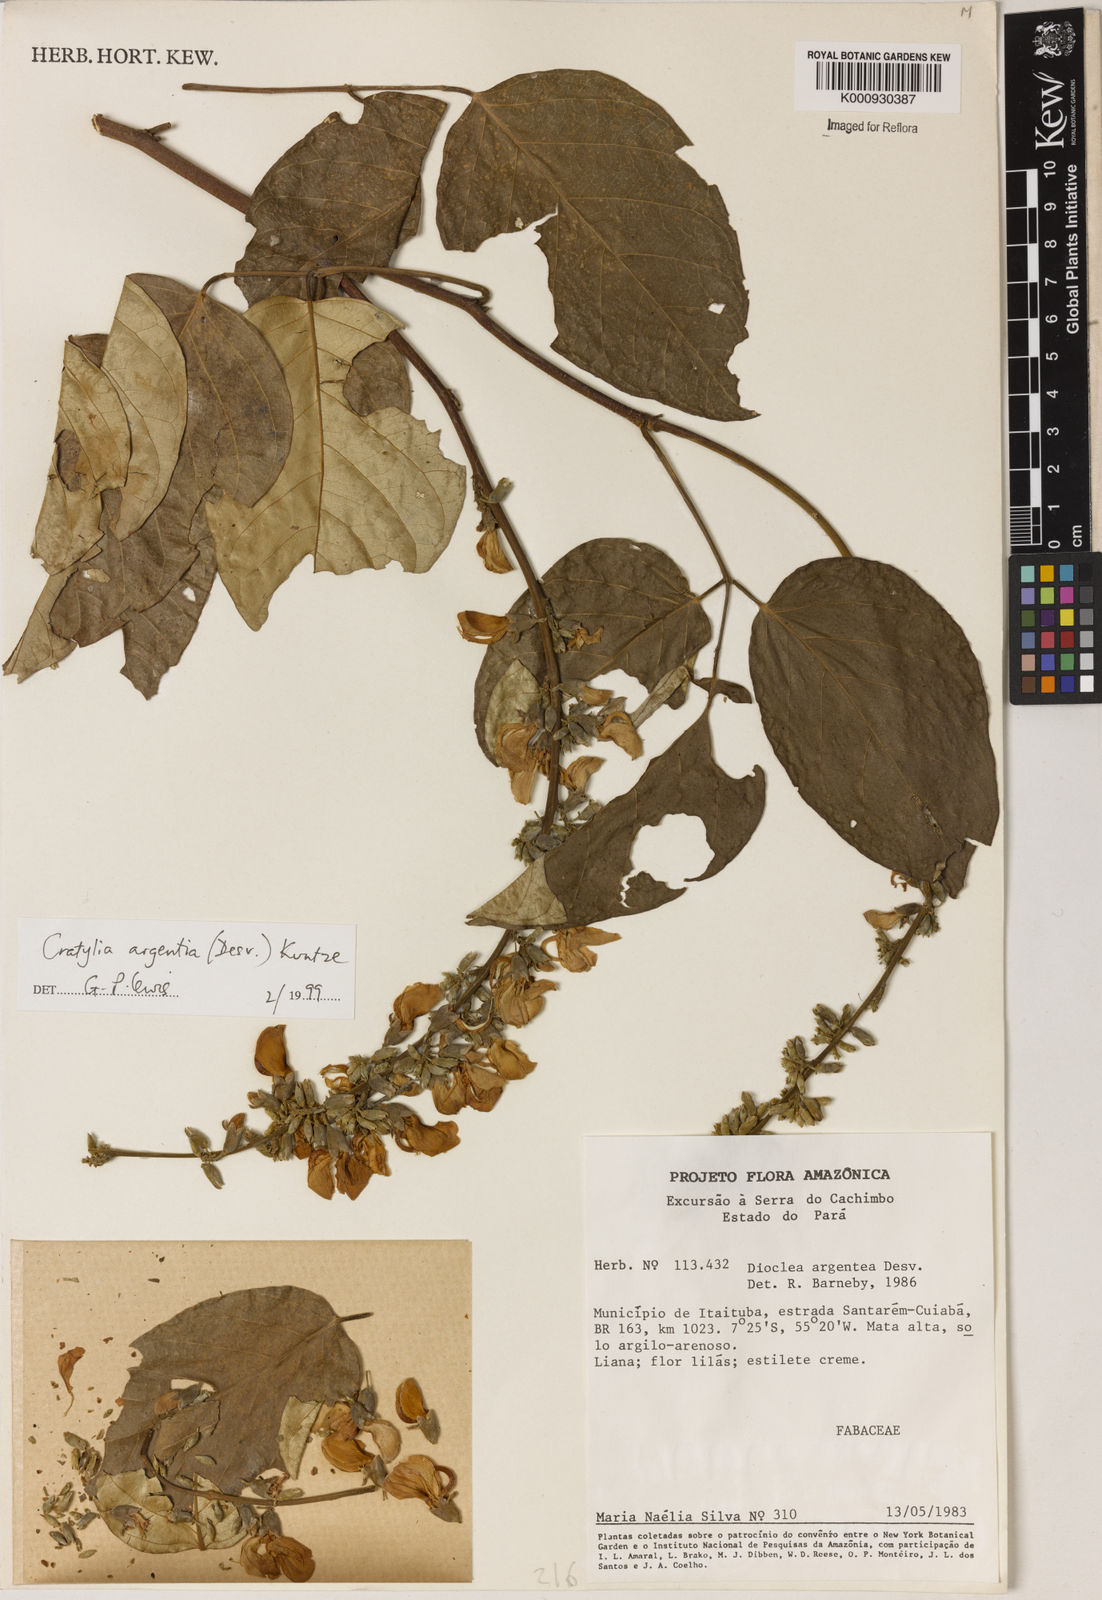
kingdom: Plantae
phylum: Tracheophyta
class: Magnoliopsida
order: Fabales
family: Fabaceae
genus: Cratylia
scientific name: Cratylia argentea
